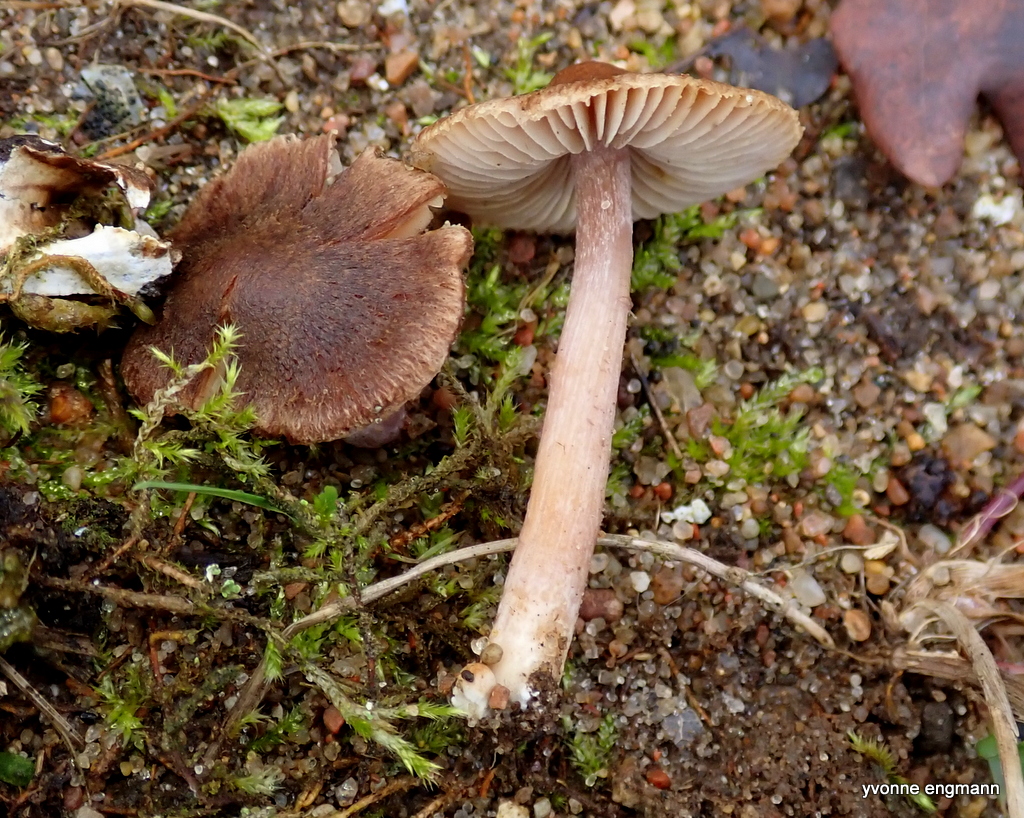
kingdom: Fungi
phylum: Basidiomycota
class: Agaricomycetes
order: Agaricales
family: Inocybaceae
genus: Inocybe
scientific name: Inocybe
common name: trævlhat
